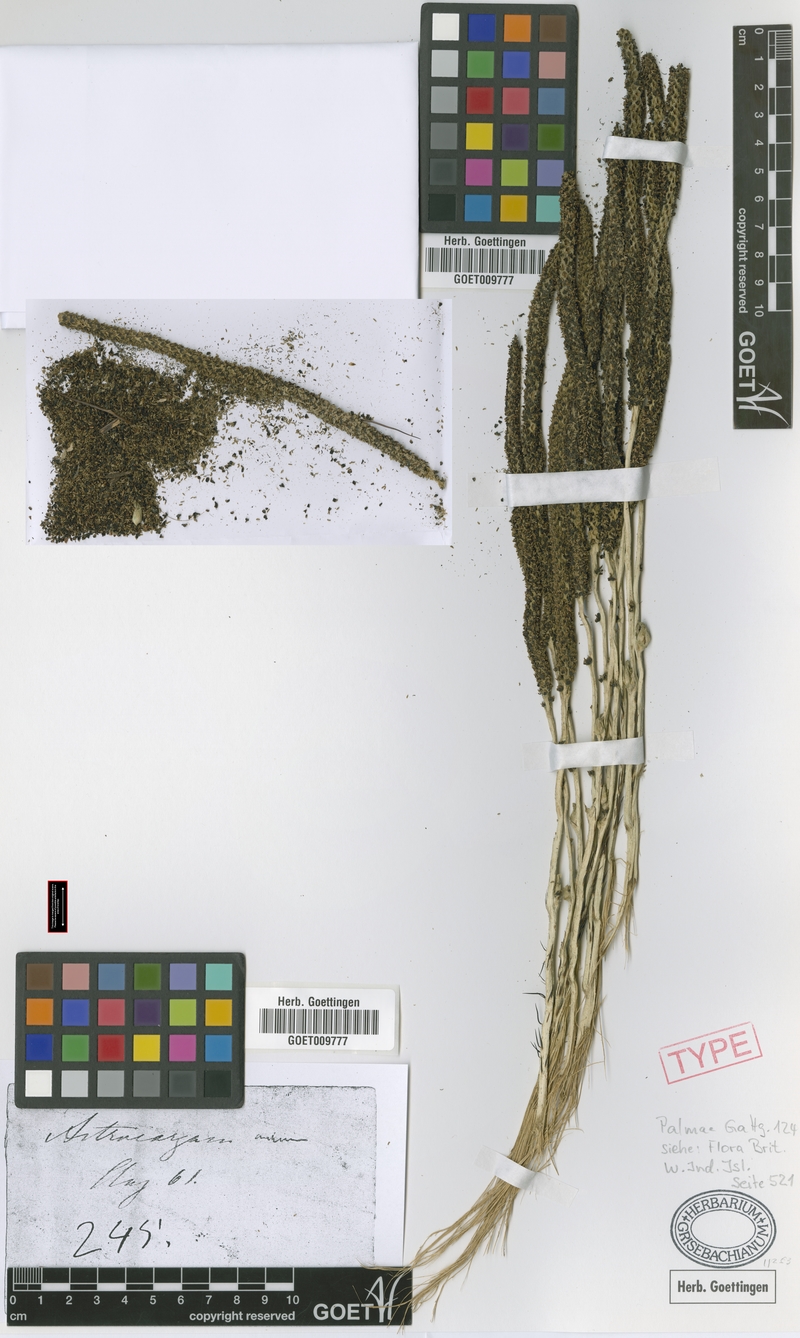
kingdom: Plantae
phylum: Tracheophyta
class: Liliopsida
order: Arecales
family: Arecaceae
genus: Astrocaryum
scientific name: Astrocaryum aculeatum
